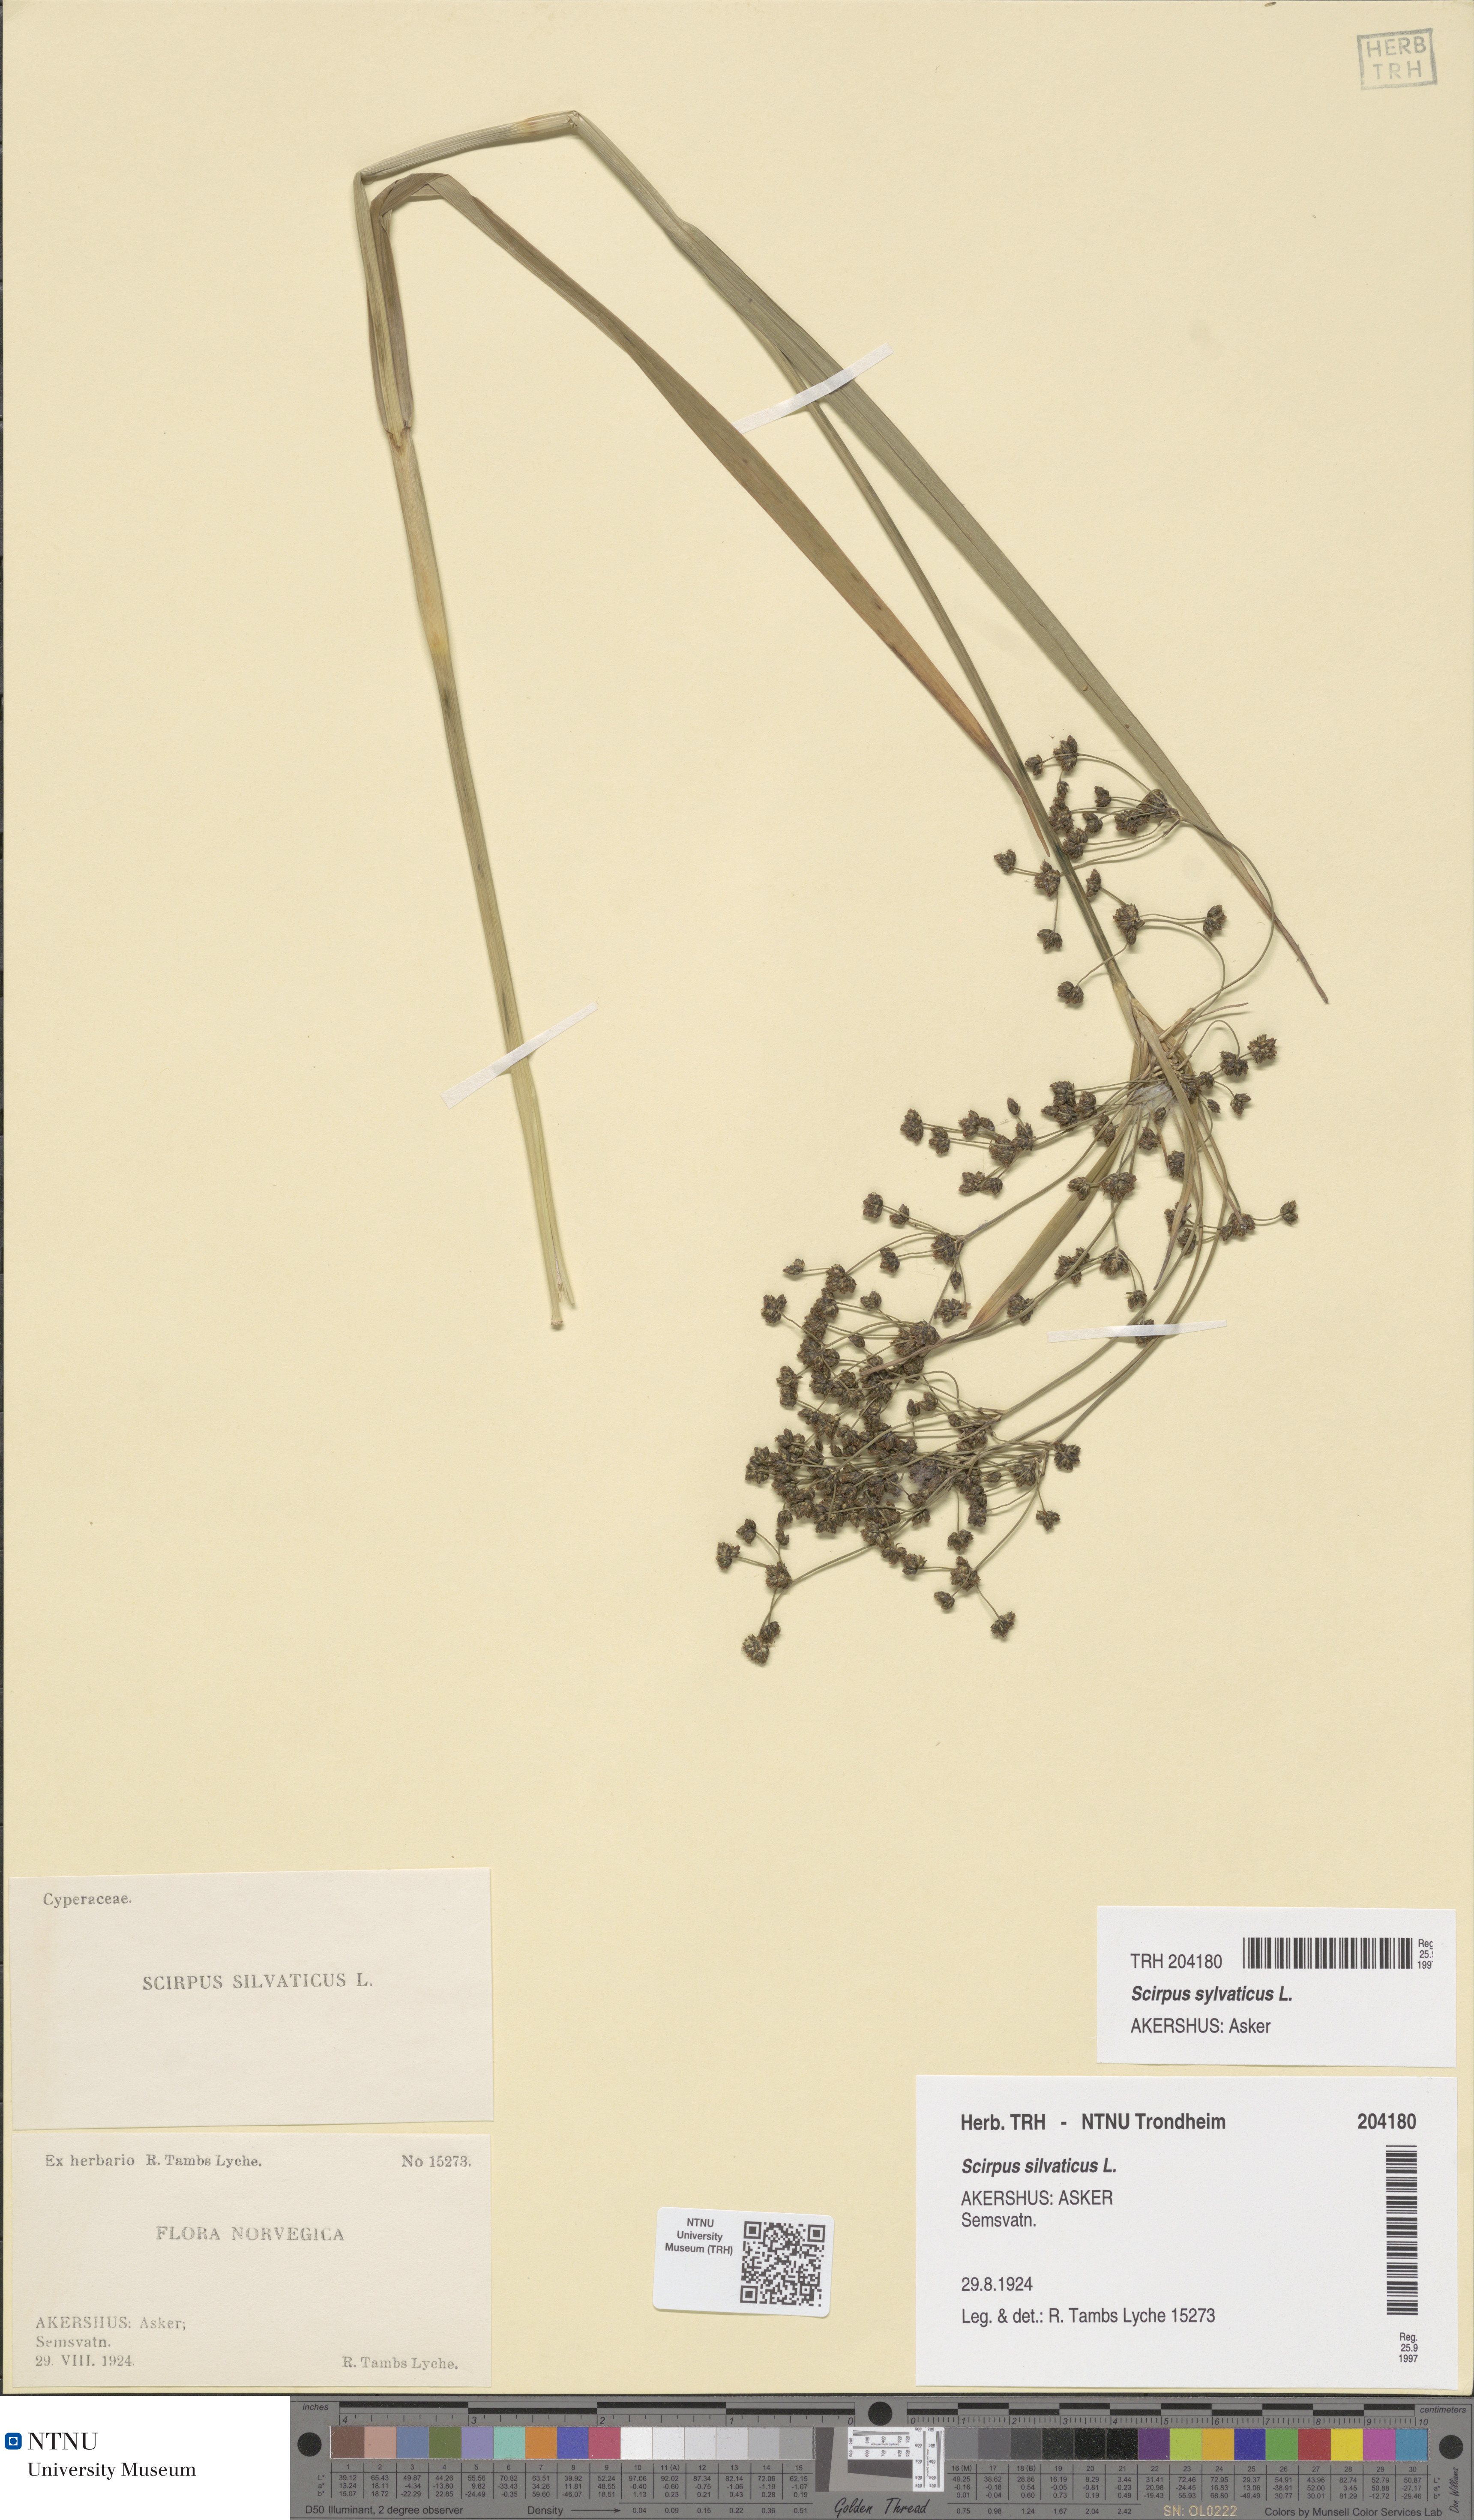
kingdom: Plantae
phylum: Tracheophyta
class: Liliopsida
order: Poales
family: Cyperaceae
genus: Scirpus
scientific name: Scirpus sylvaticus
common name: Wood club-rush
